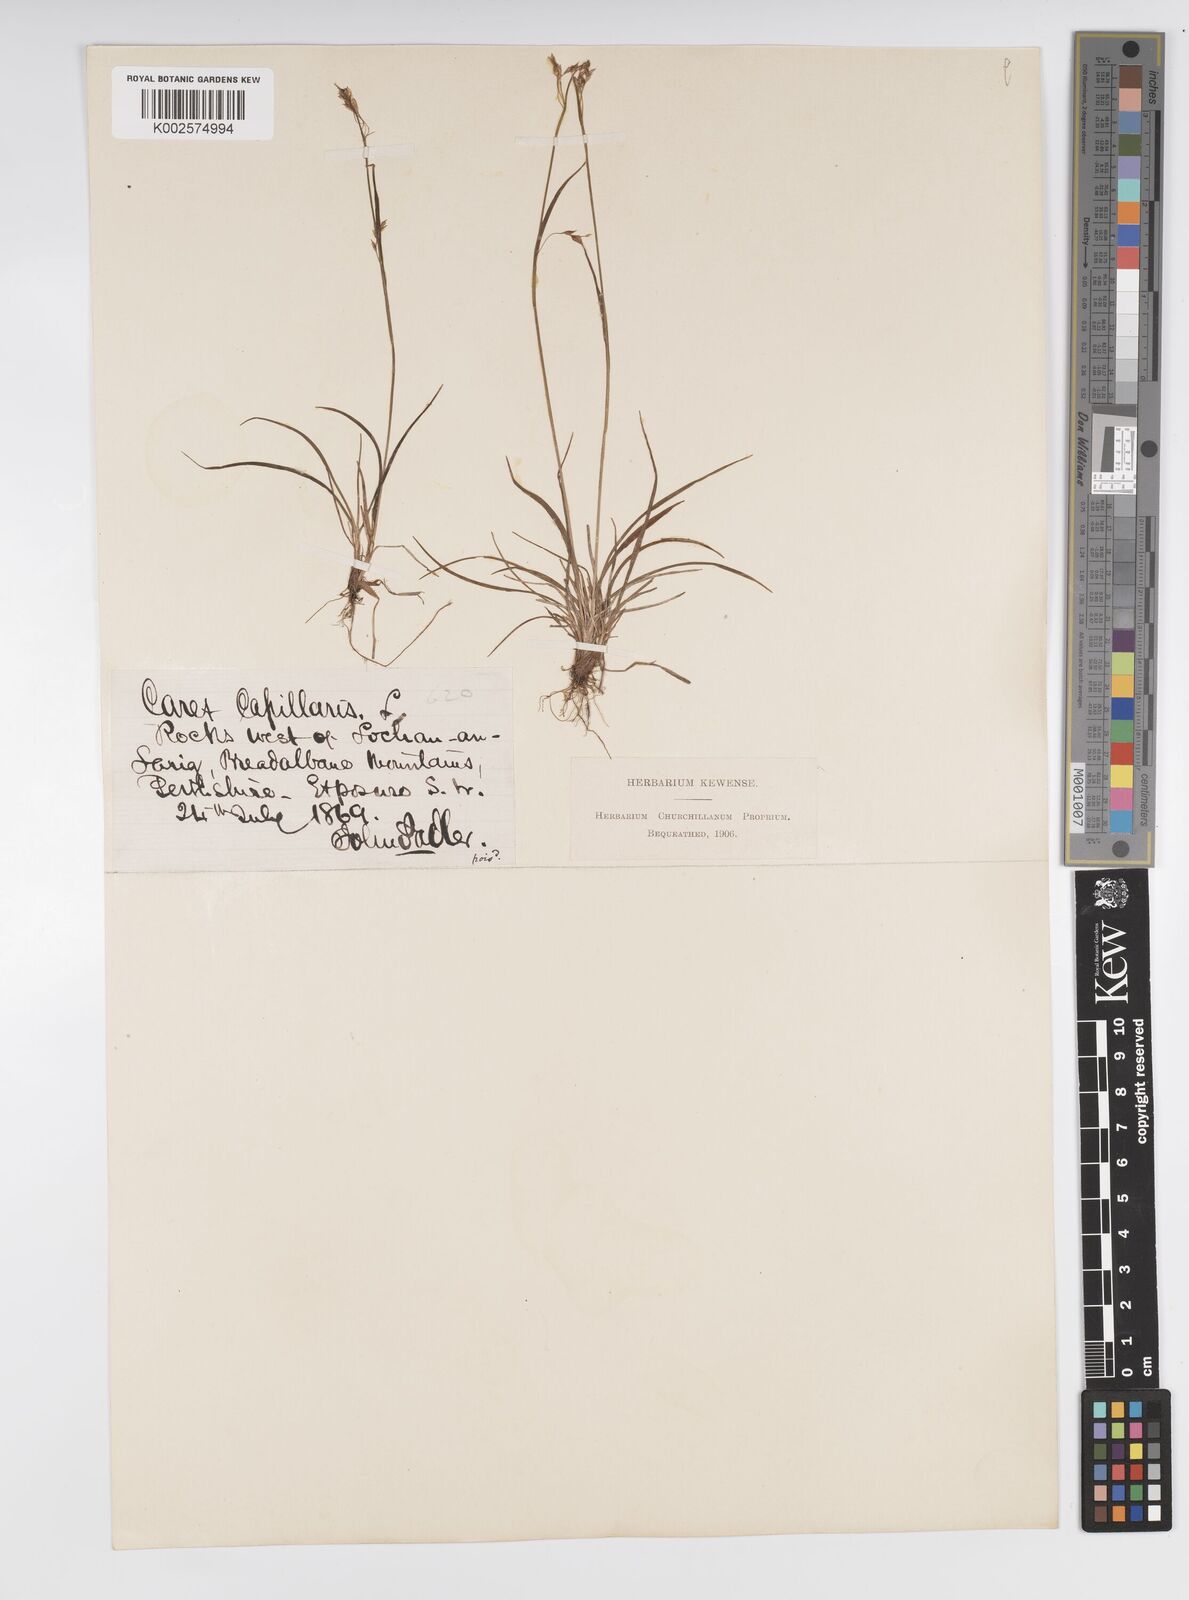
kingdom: Plantae
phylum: Tracheophyta
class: Liliopsida
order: Poales
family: Cyperaceae
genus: Carex
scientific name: Carex capillaris
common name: Hair sedge
